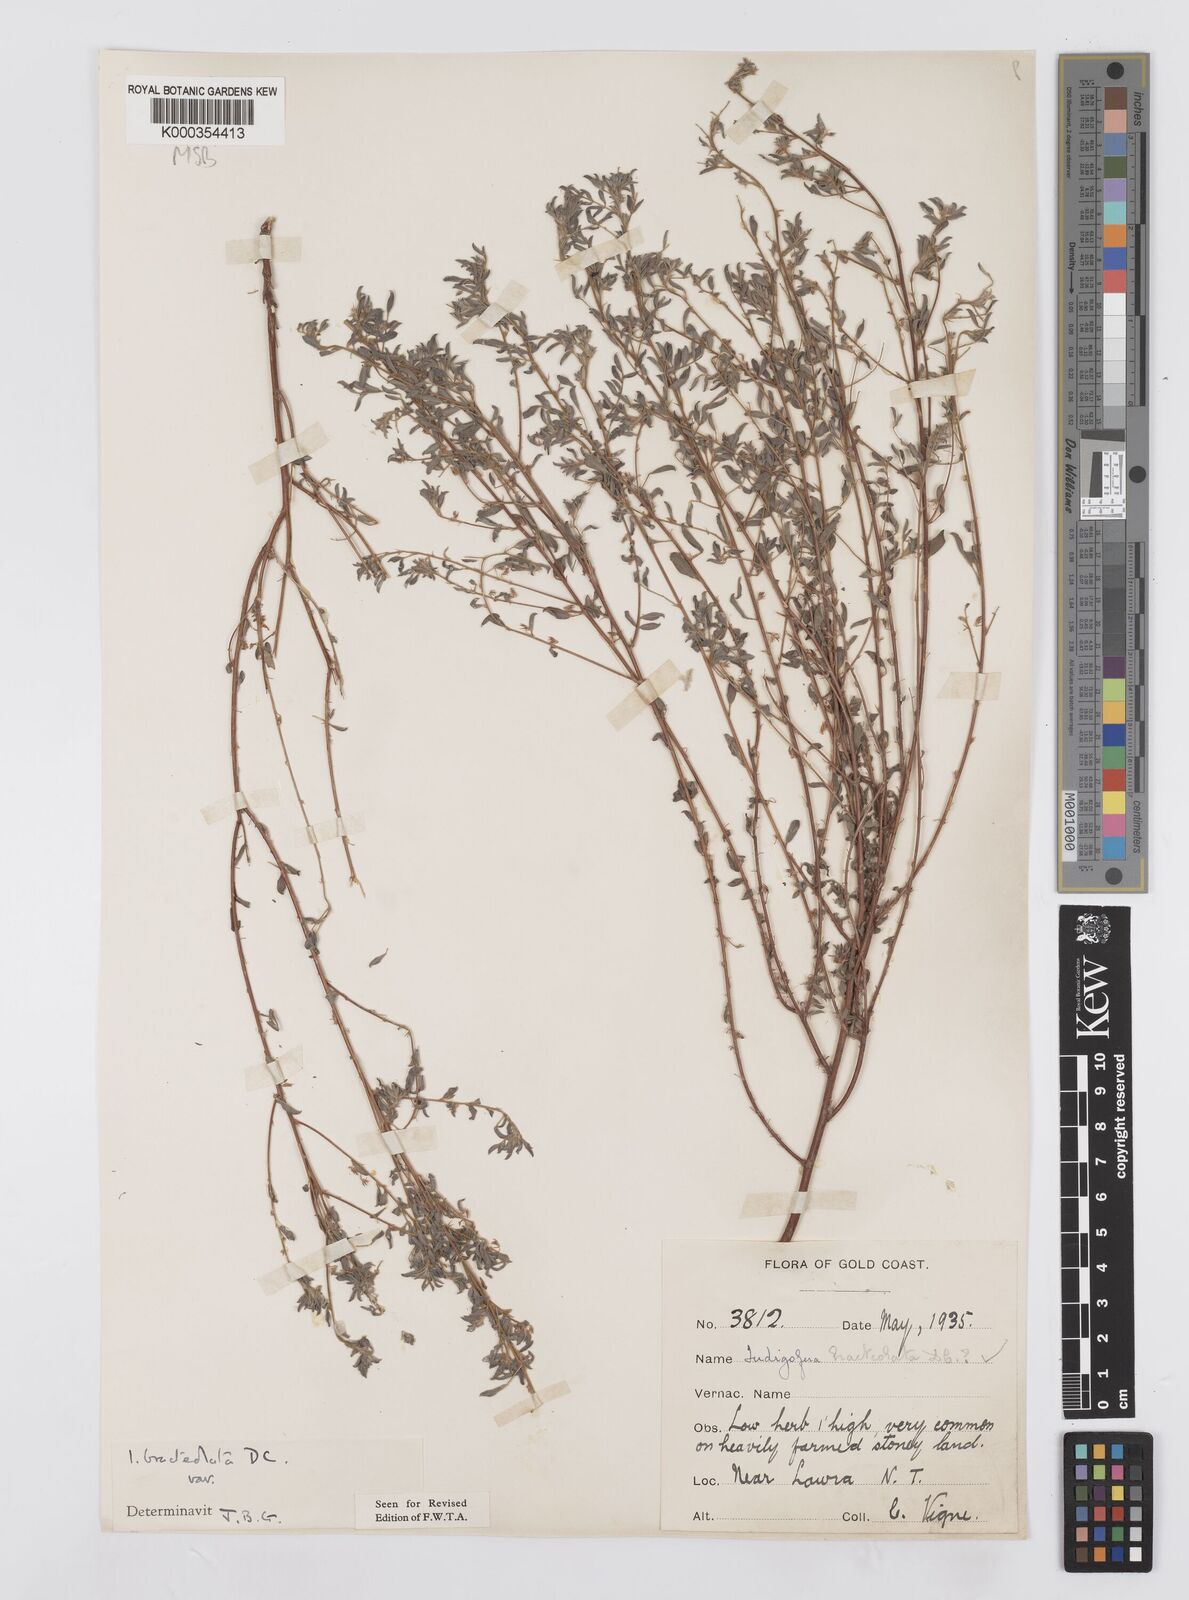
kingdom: Plantae
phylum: Tracheophyta
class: Magnoliopsida
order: Fabales
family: Fabaceae
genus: Indigofera
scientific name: Indigofera bracteolata
